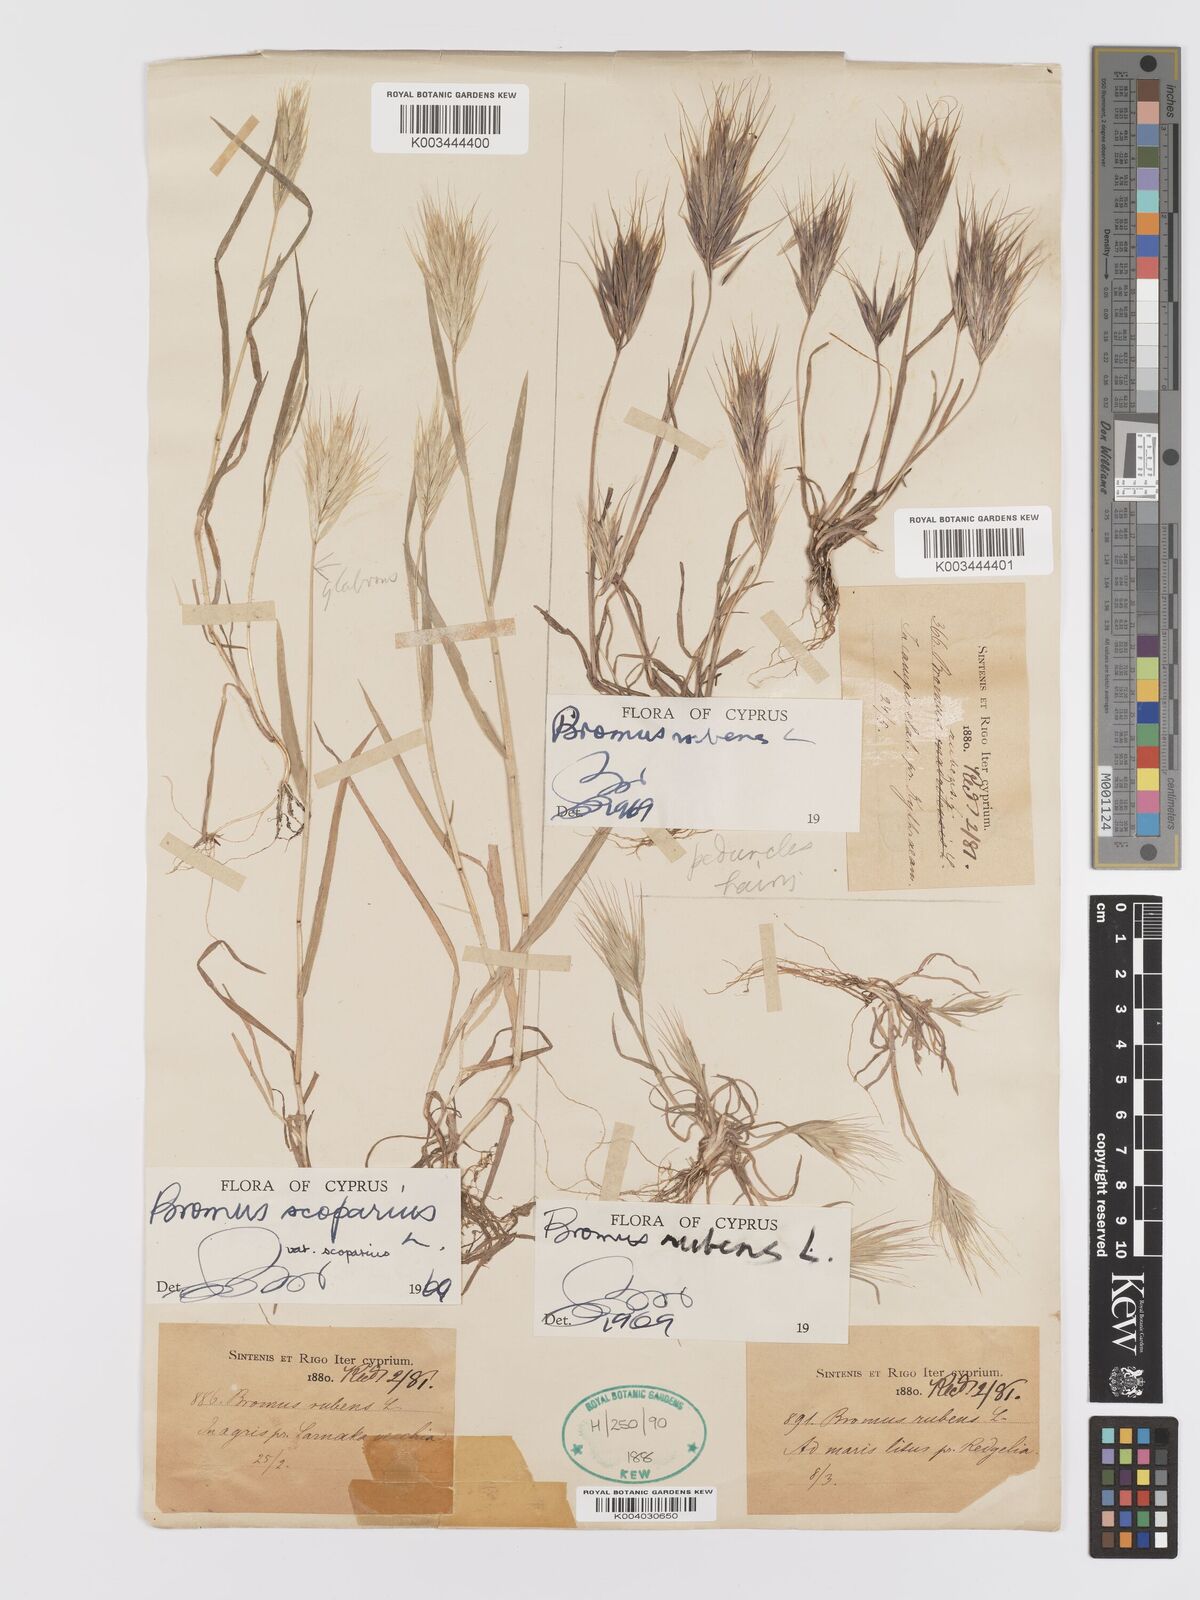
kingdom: Plantae
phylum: Tracheophyta
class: Liliopsida
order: Poales
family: Poaceae
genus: Bromus
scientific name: Bromus rubens
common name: Red brome
